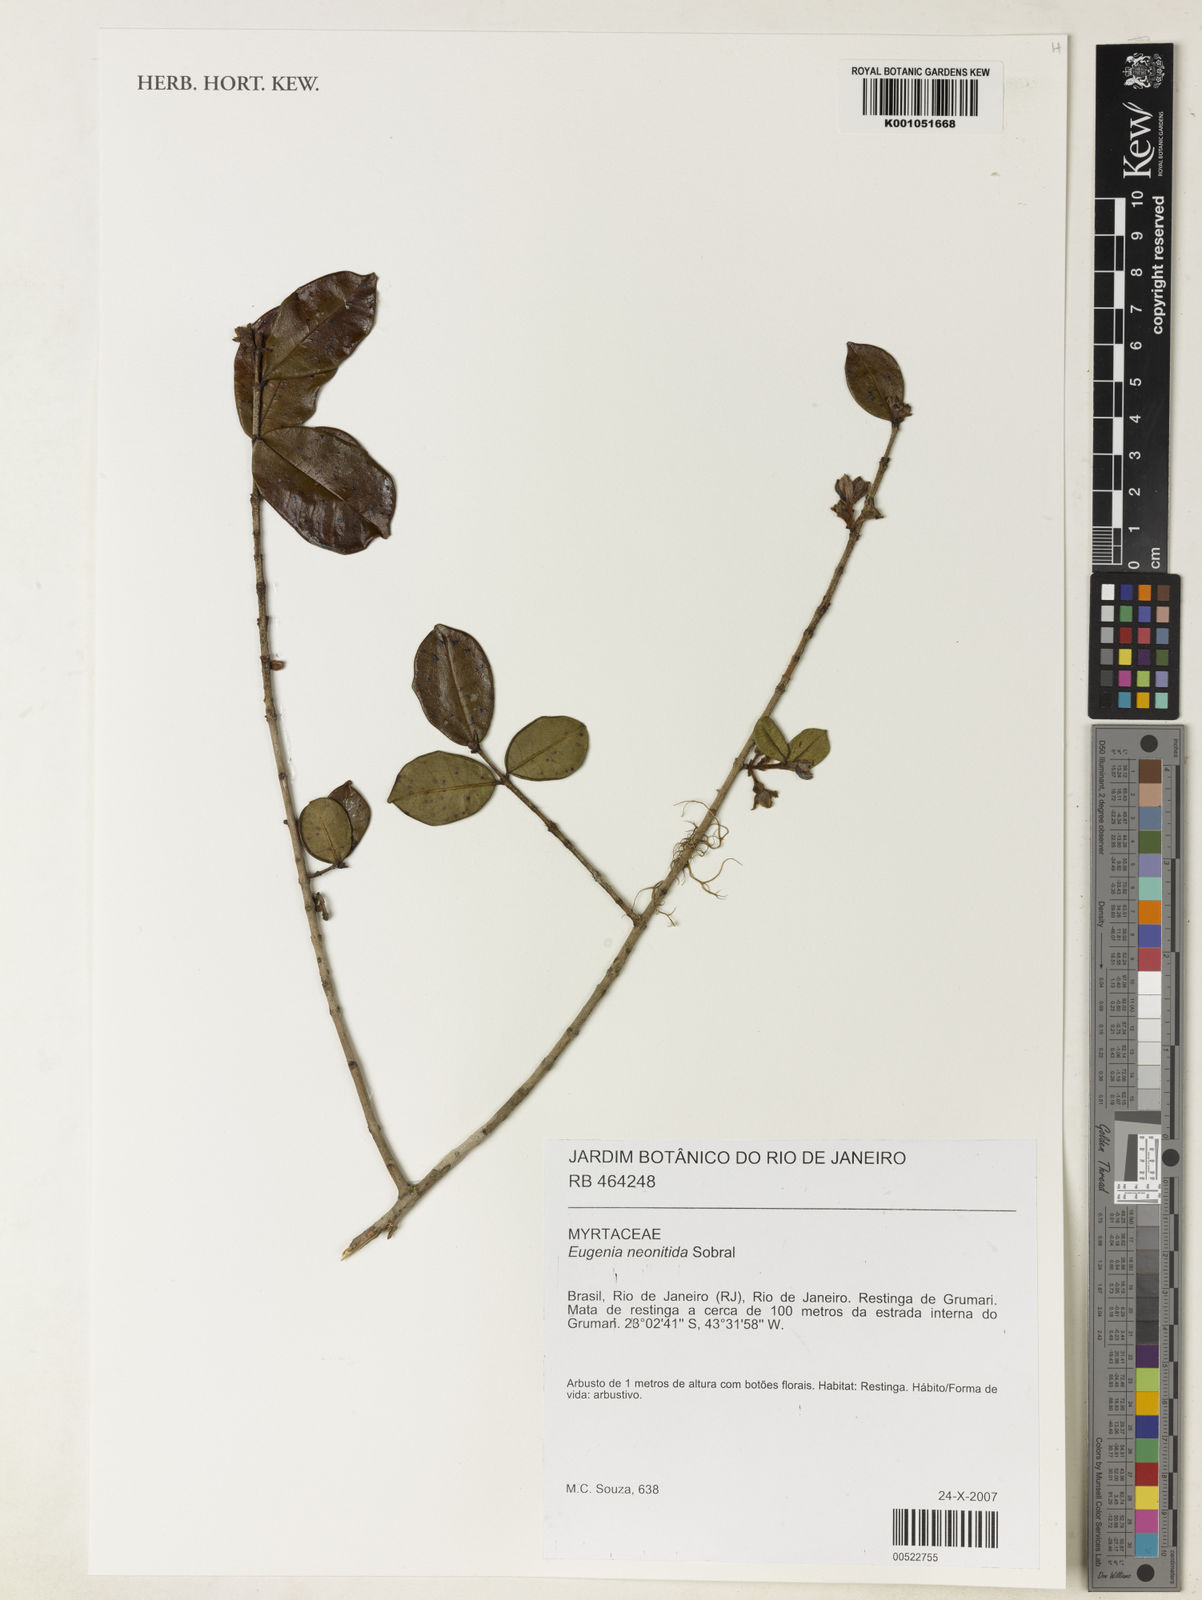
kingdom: Plantae
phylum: Tracheophyta
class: Magnoliopsida
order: Myrtales
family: Myrtaceae
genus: Eugenia
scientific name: Eugenia selloi
